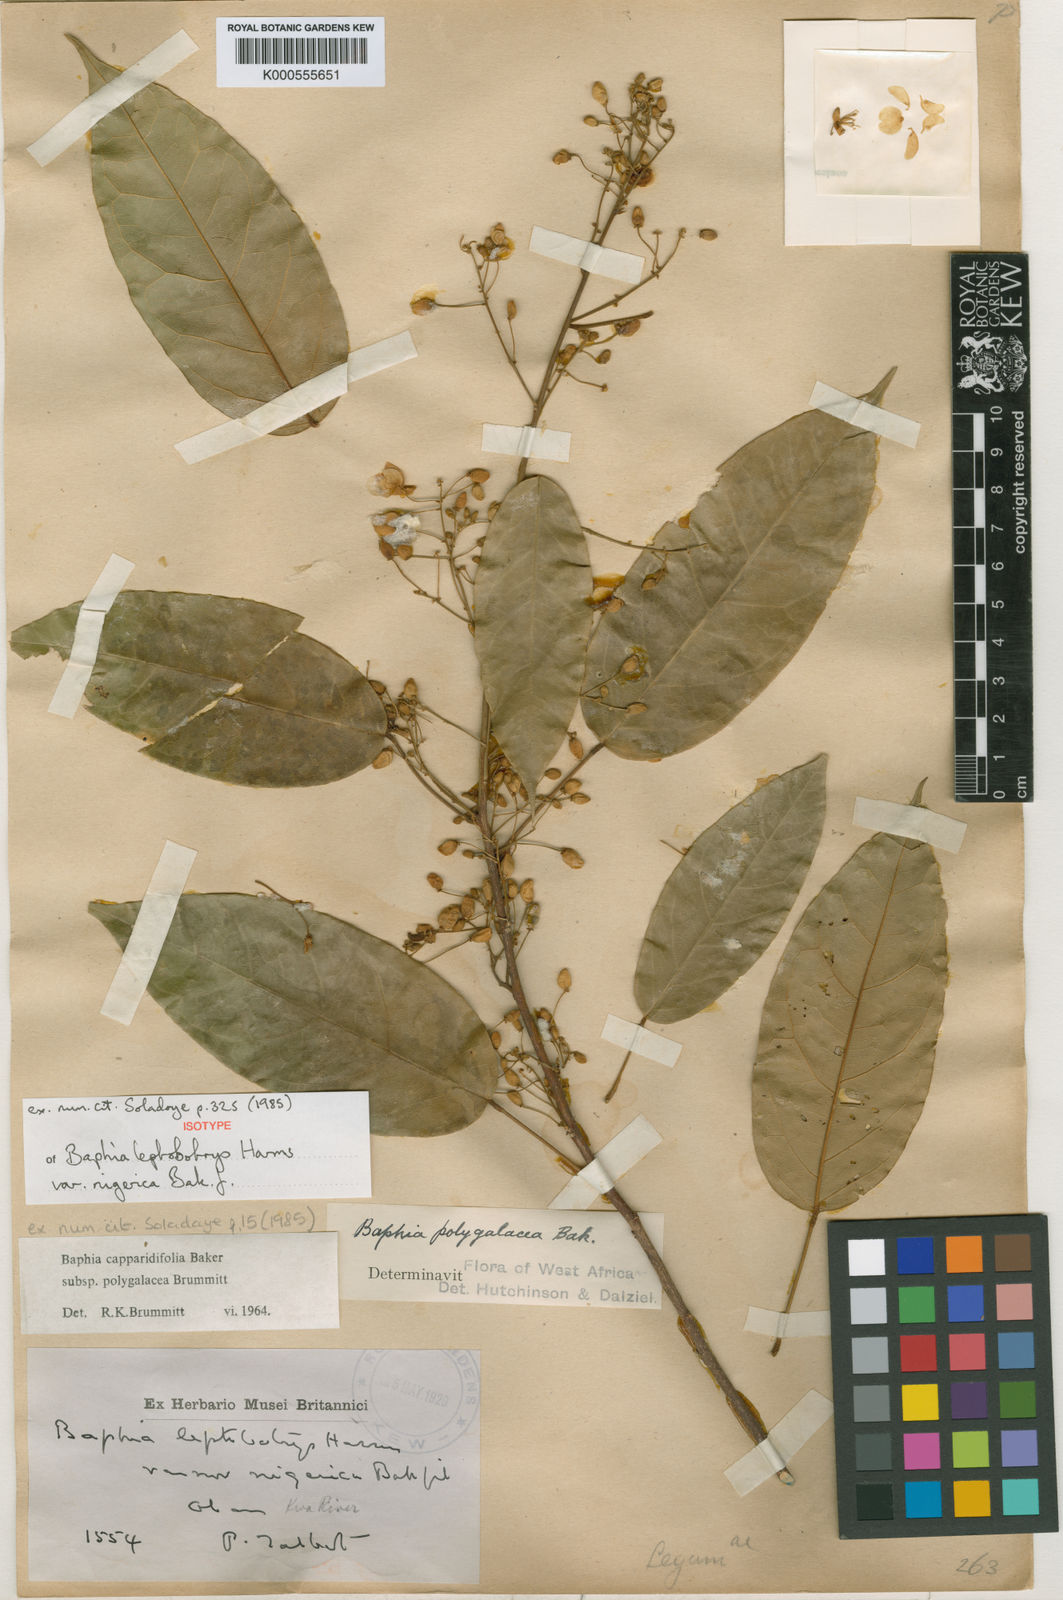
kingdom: Plantae
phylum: Tracheophyta
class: Magnoliopsida
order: Fabales
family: Fabaceae
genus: Baphia
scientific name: Baphia capparidifolia
